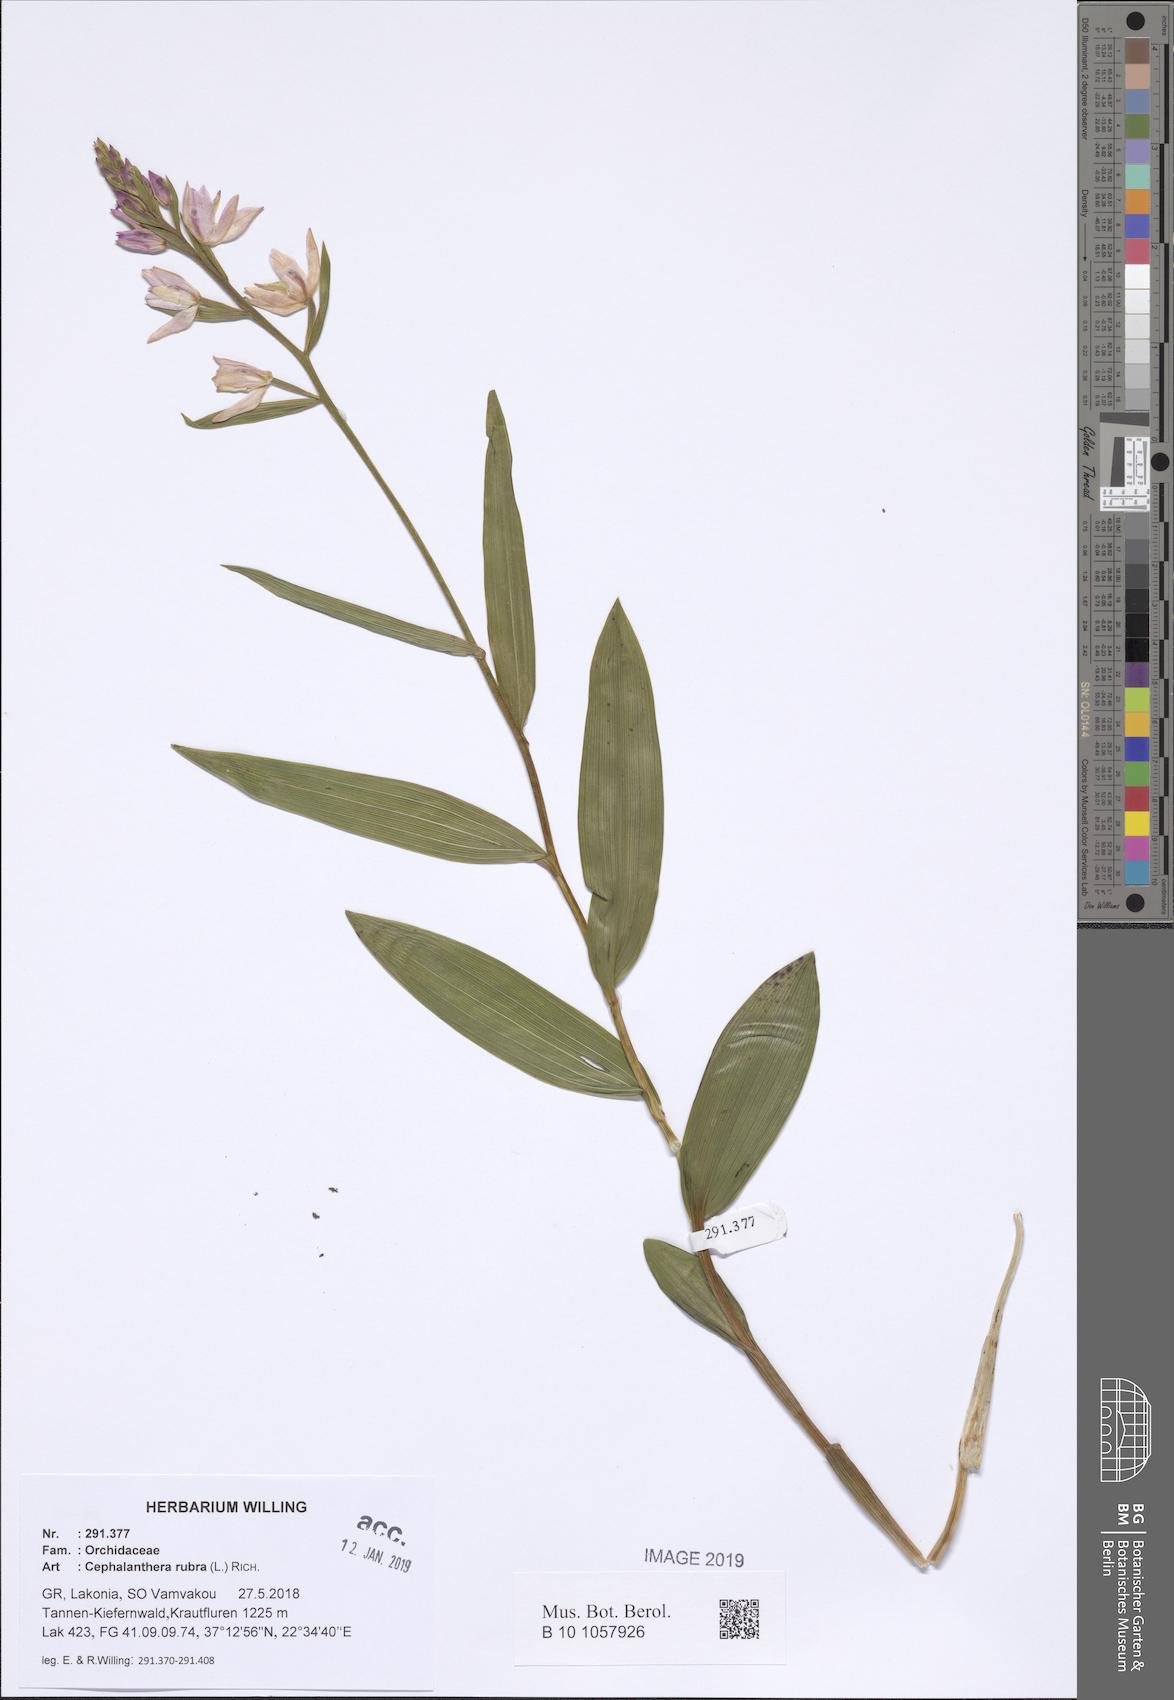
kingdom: Plantae
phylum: Tracheophyta
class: Liliopsida
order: Asparagales
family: Orchidaceae
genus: Cephalanthera
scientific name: Cephalanthera rubra
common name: Red helleborine
